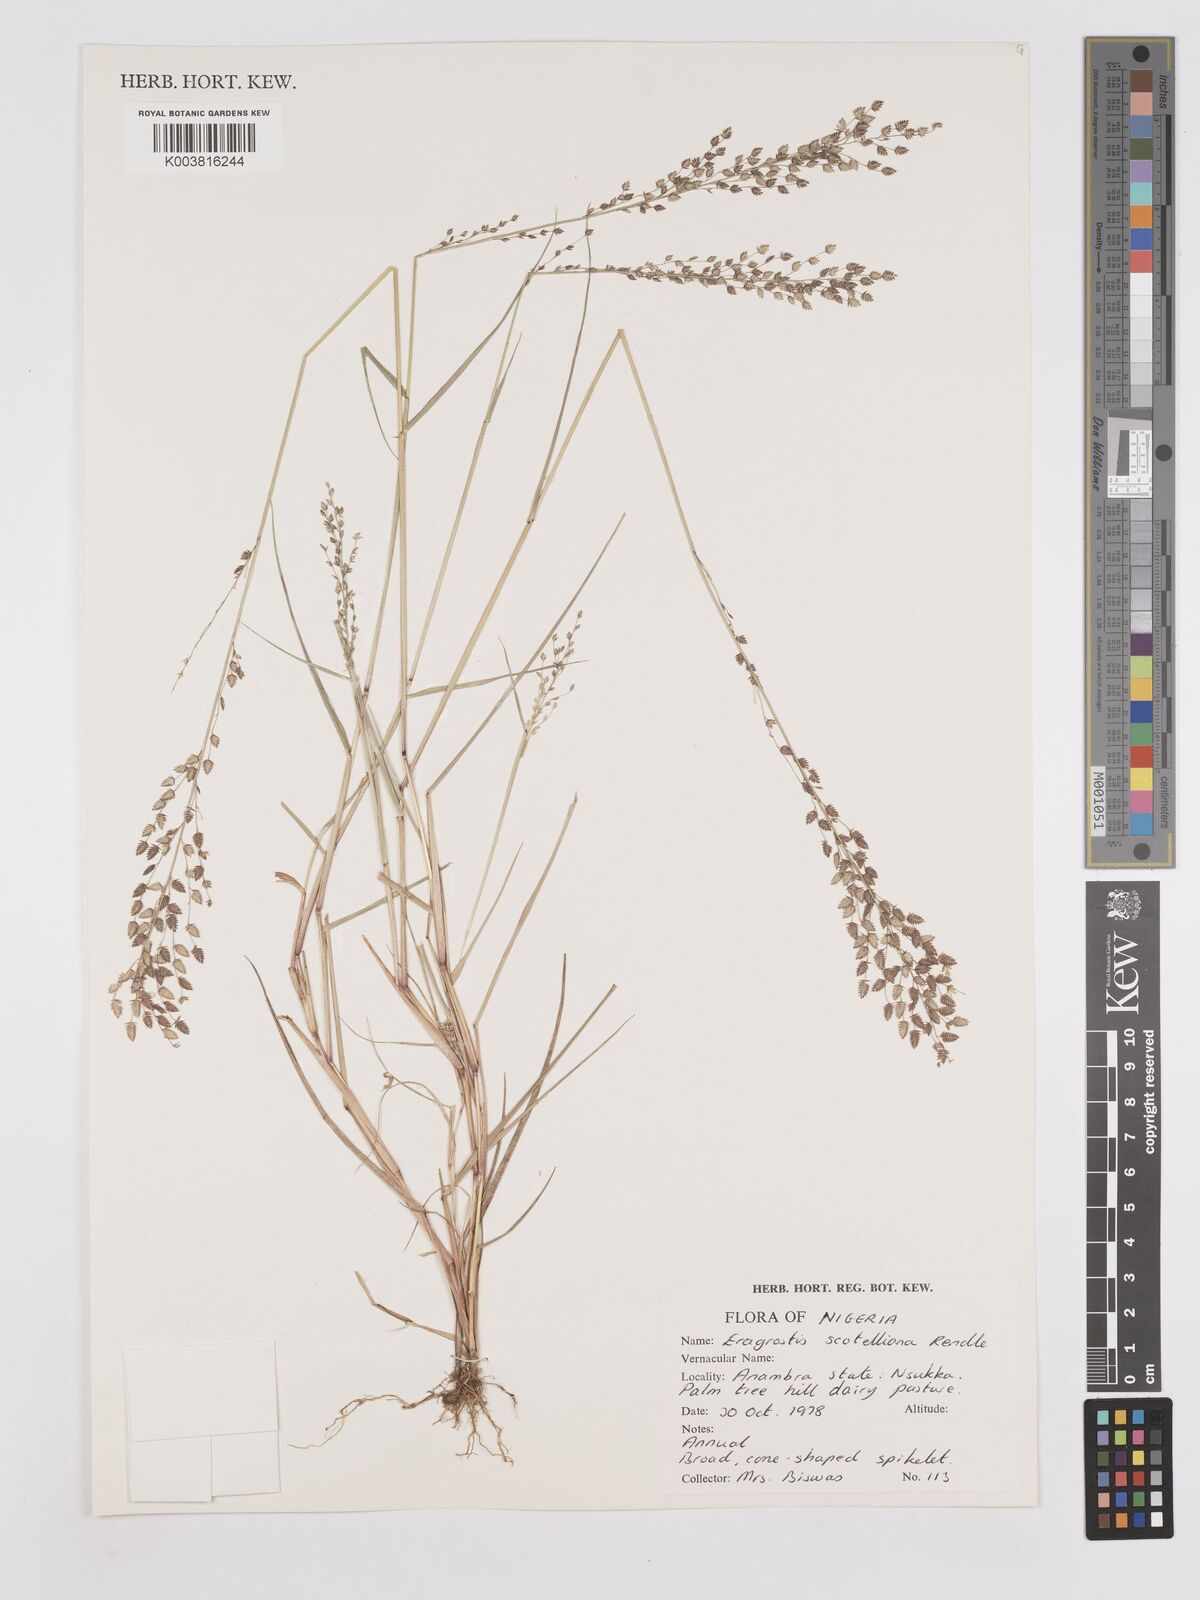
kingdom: Plantae
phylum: Tracheophyta
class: Liliopsida
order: Poales
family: Poaceae
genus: Eragrostis
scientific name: Eragrostis scotelliana
